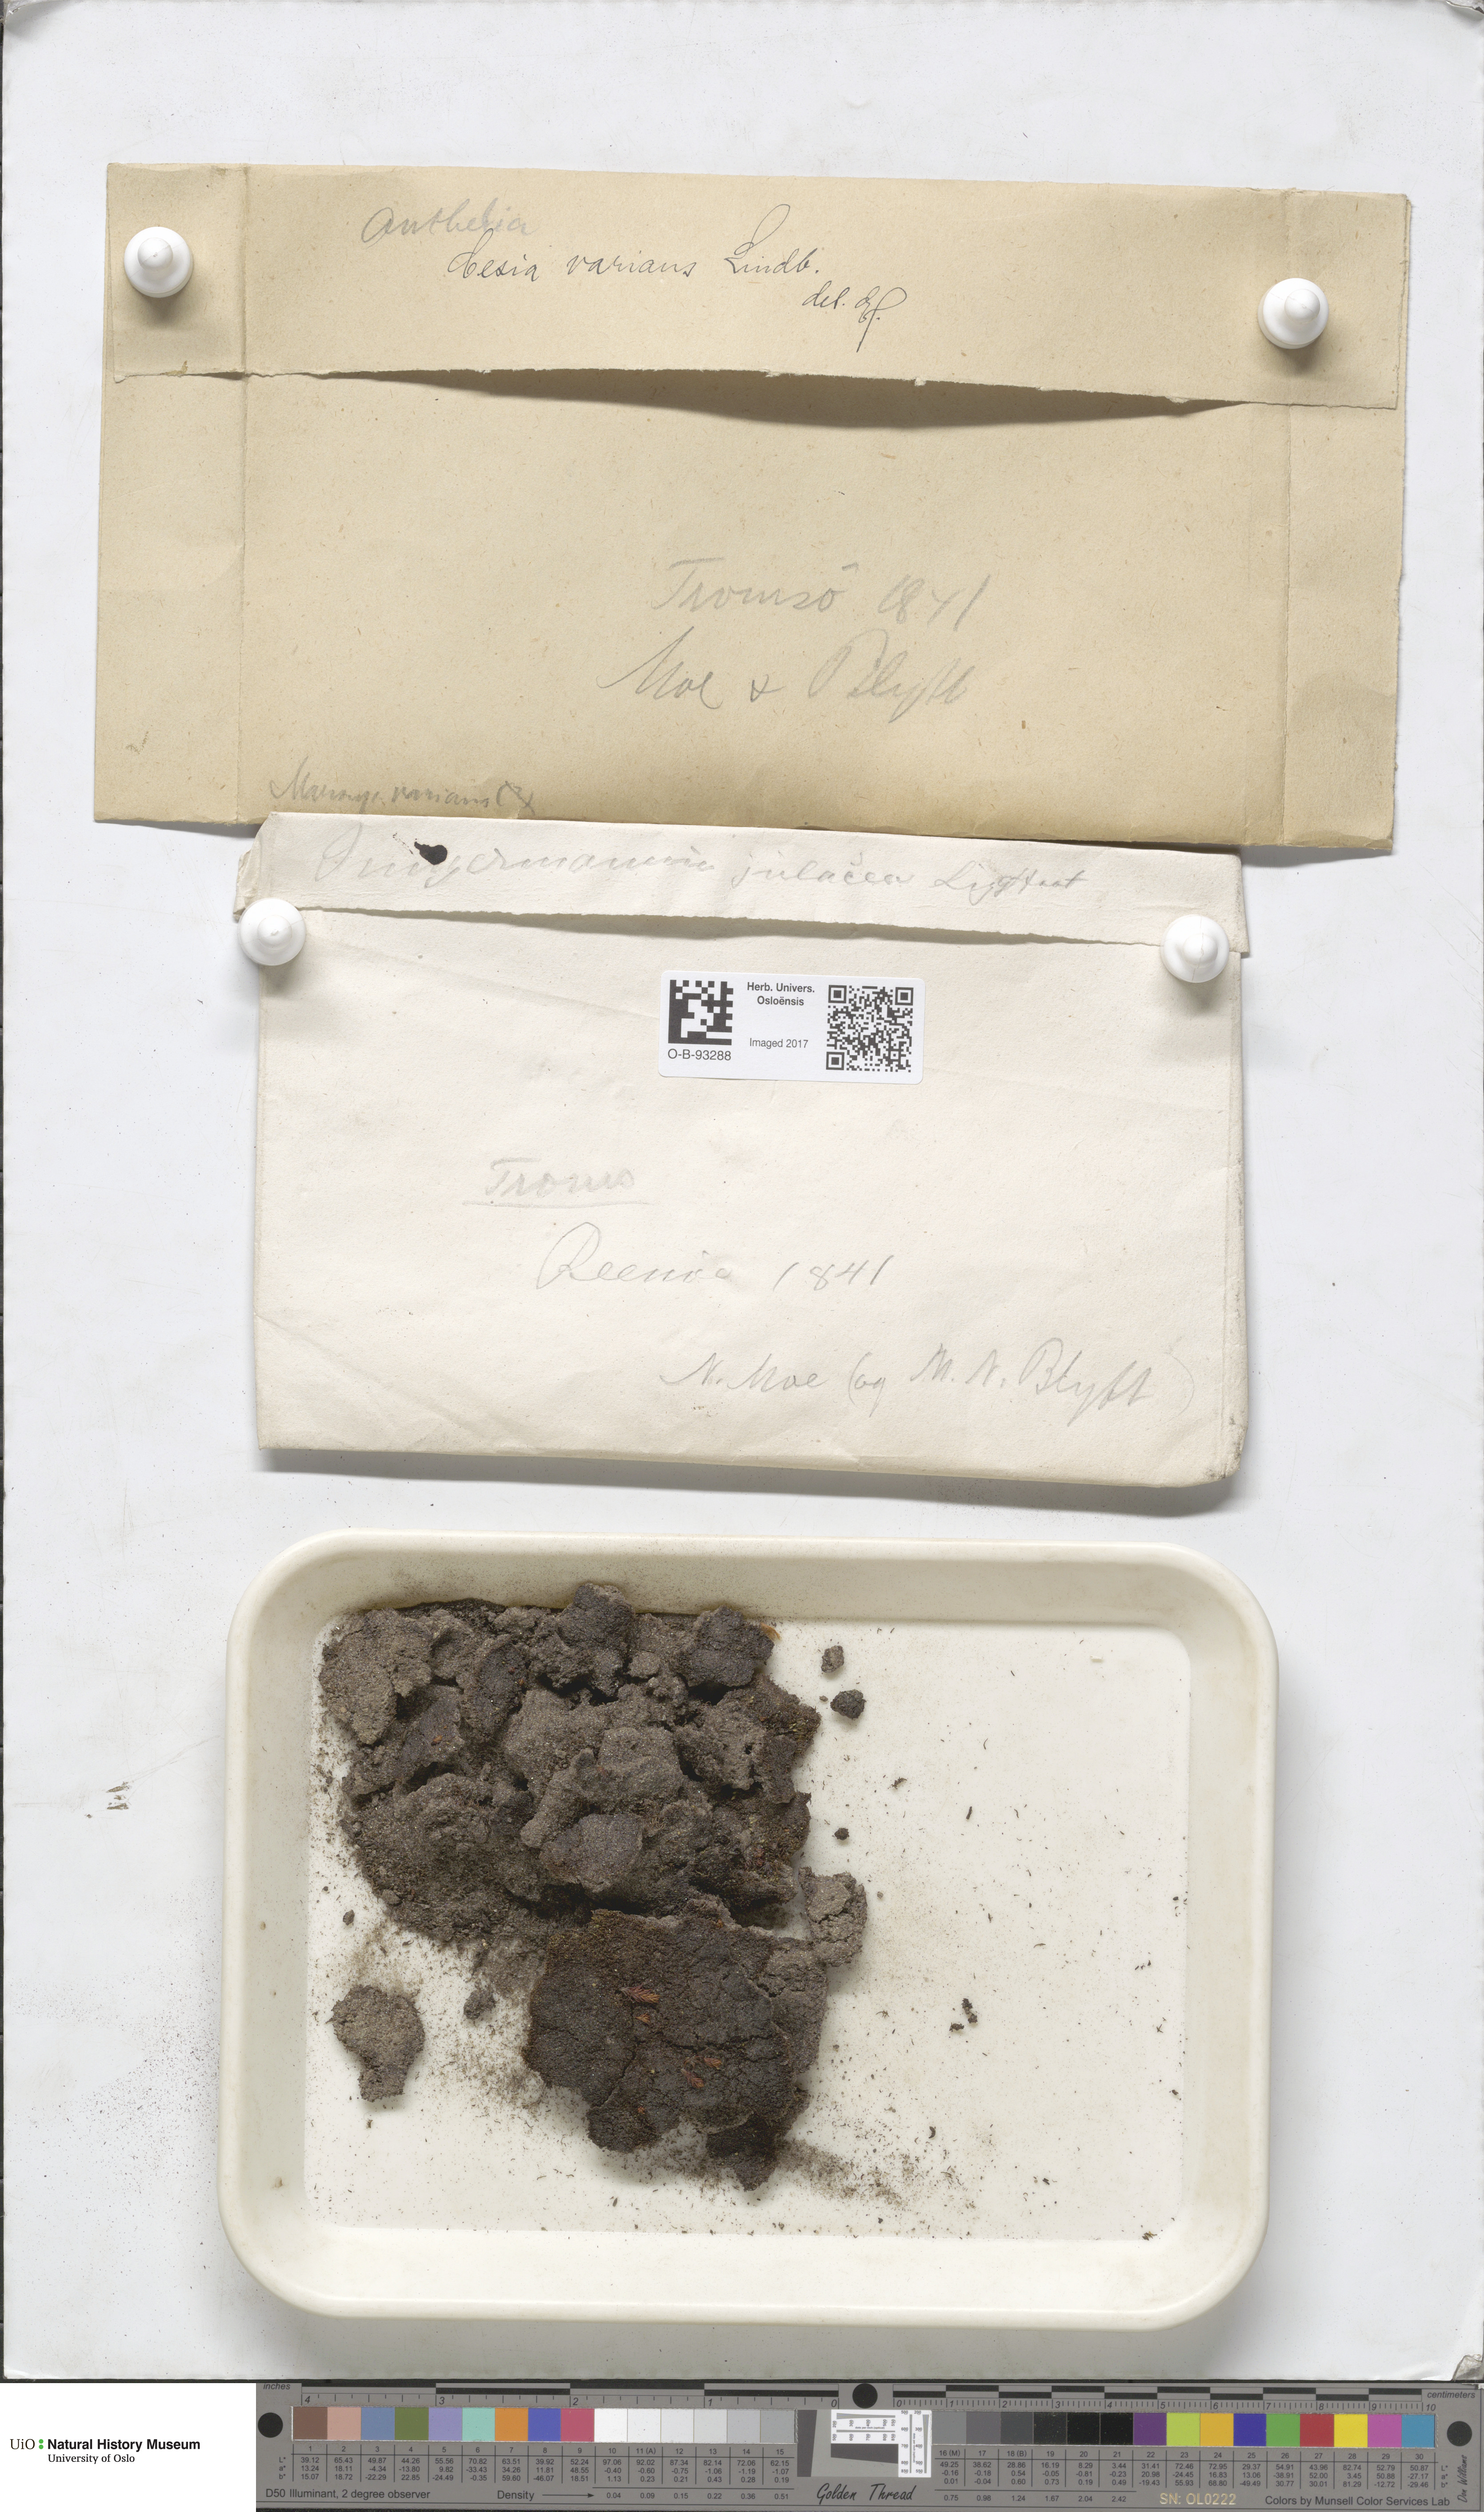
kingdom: Plantae
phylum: Marchantiophyta
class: Jungermanniopsida
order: Jungermanniales
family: Gymnomitriaceae
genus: Gymnomitrion
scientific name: Gymnomitrion brevissimum
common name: Snow rustwort
